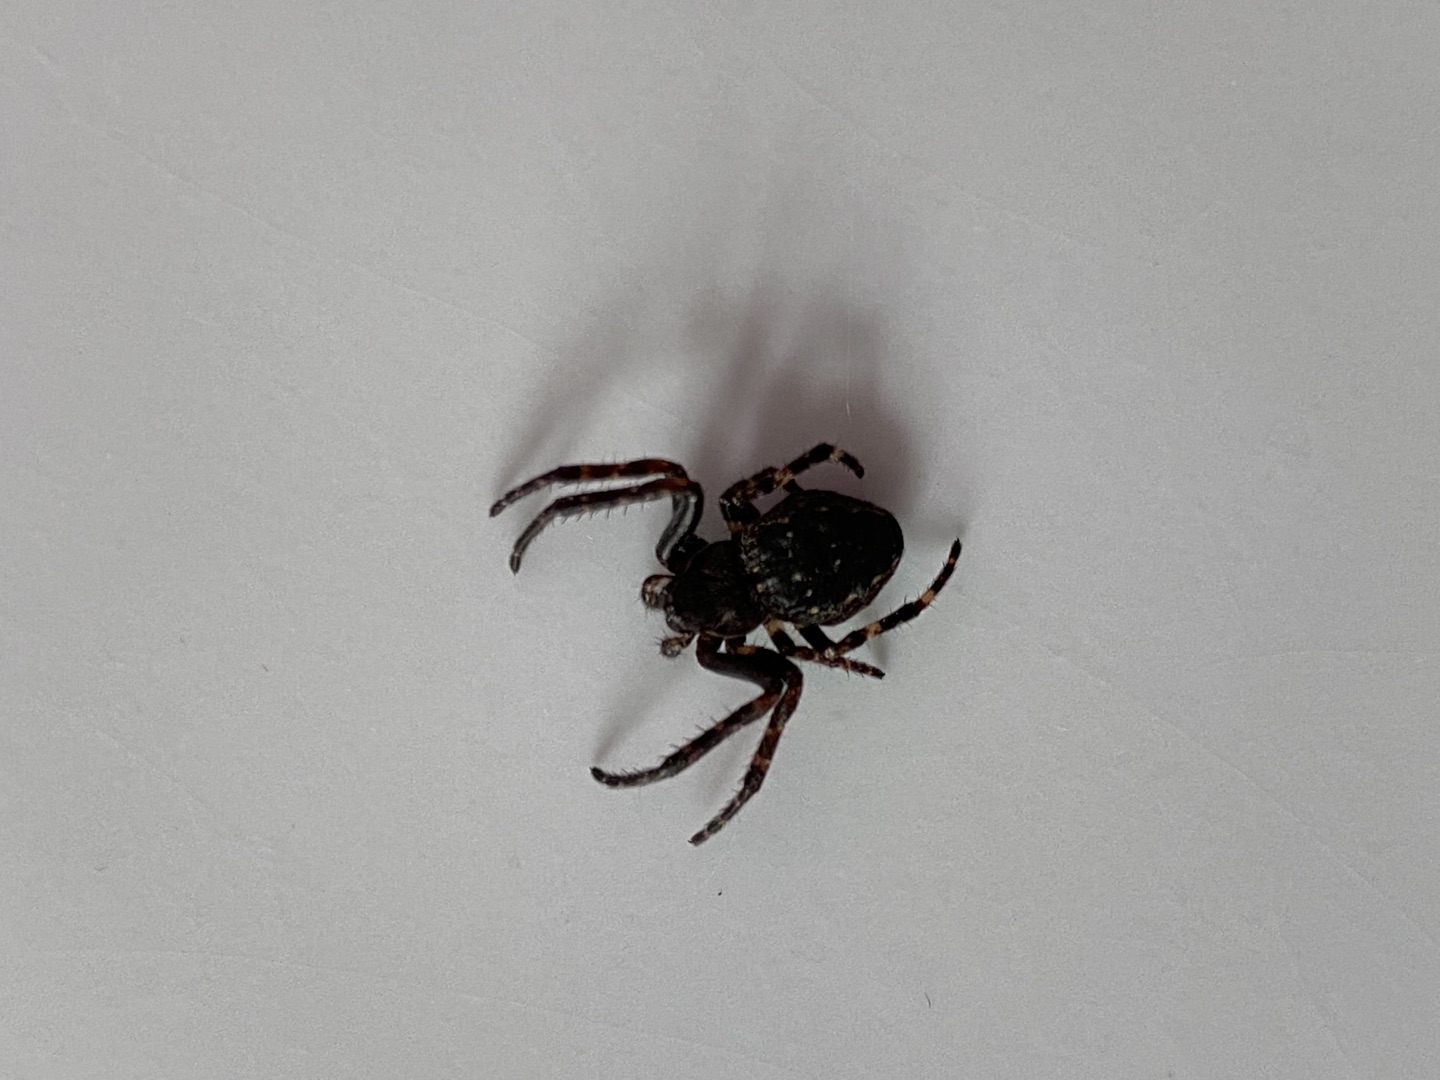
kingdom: Animalia
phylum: Arthropoda
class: Arachnida
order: Araneae
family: Araneidae
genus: Nuctenea
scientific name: Nuctenea umbratica
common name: Flad hjulspinder
